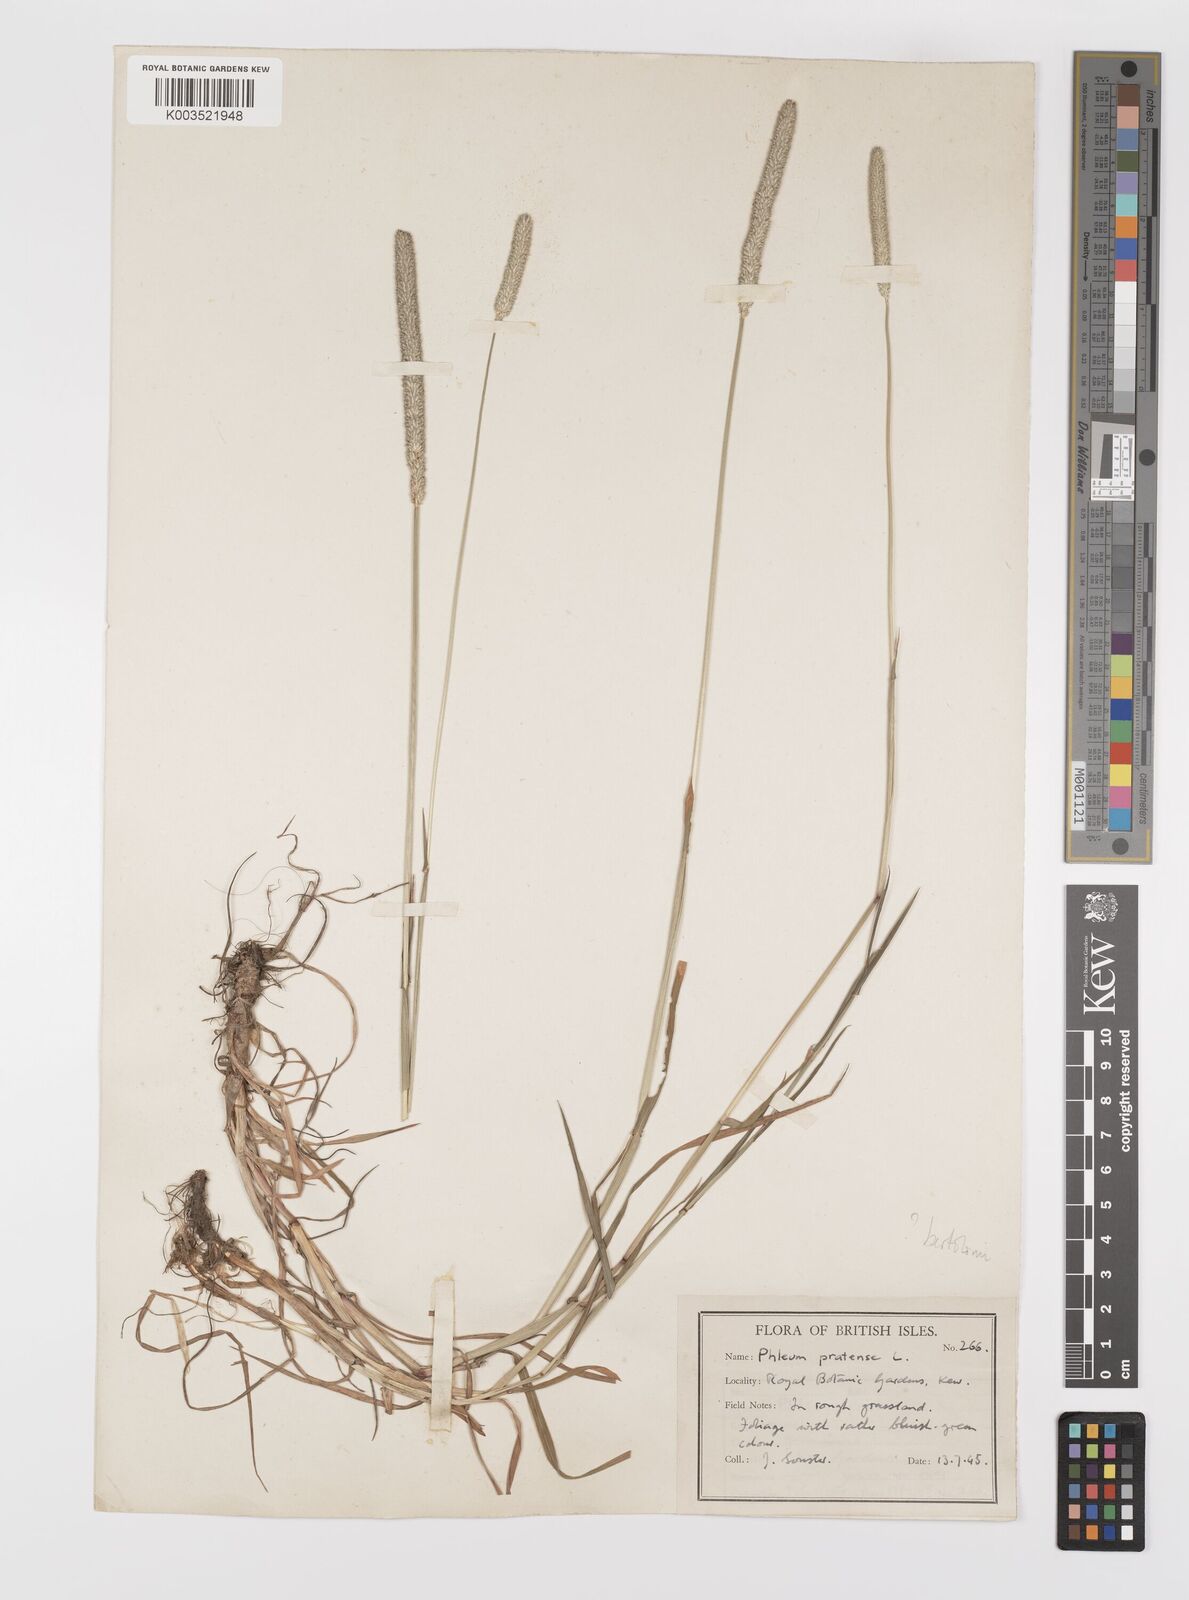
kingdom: Plantae
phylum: Tracheophyta
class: Liliopsida
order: Poales
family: Poaceae
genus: Phleum
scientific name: Phleum bertolonii
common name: Smaller cat's-tail
